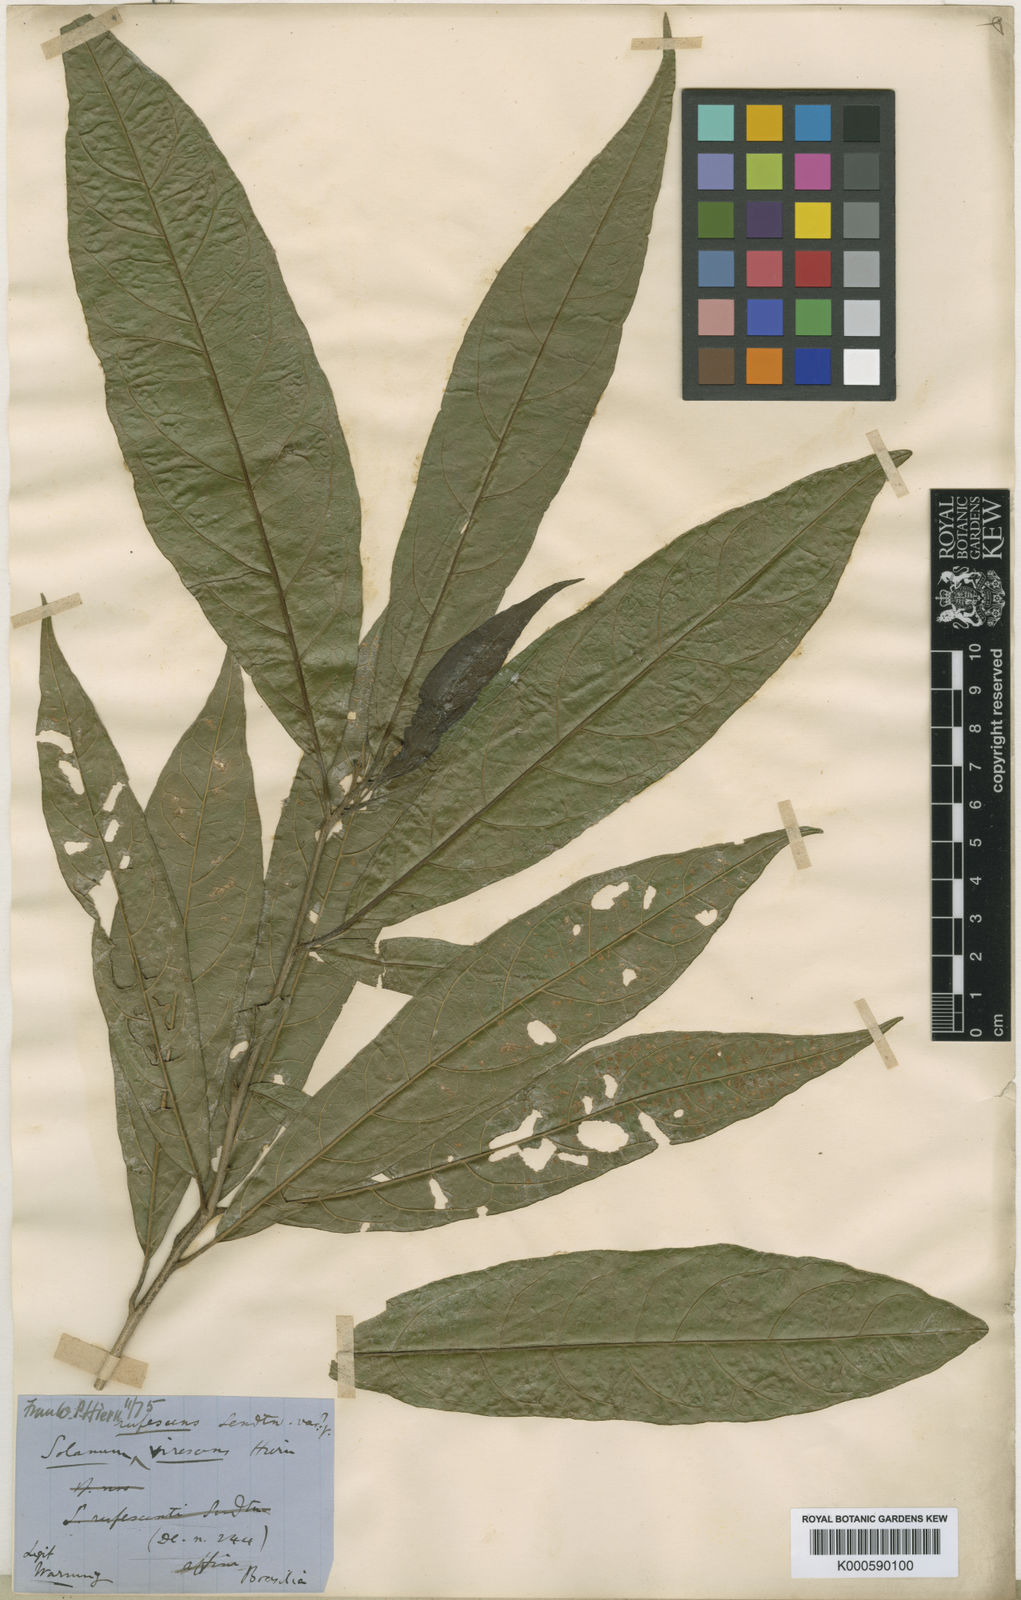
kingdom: Plantae
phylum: Tracheophyta
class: Magnoliopsida
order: Solanales
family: Solanaceae
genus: Solanum
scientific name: Solanum rufescens
